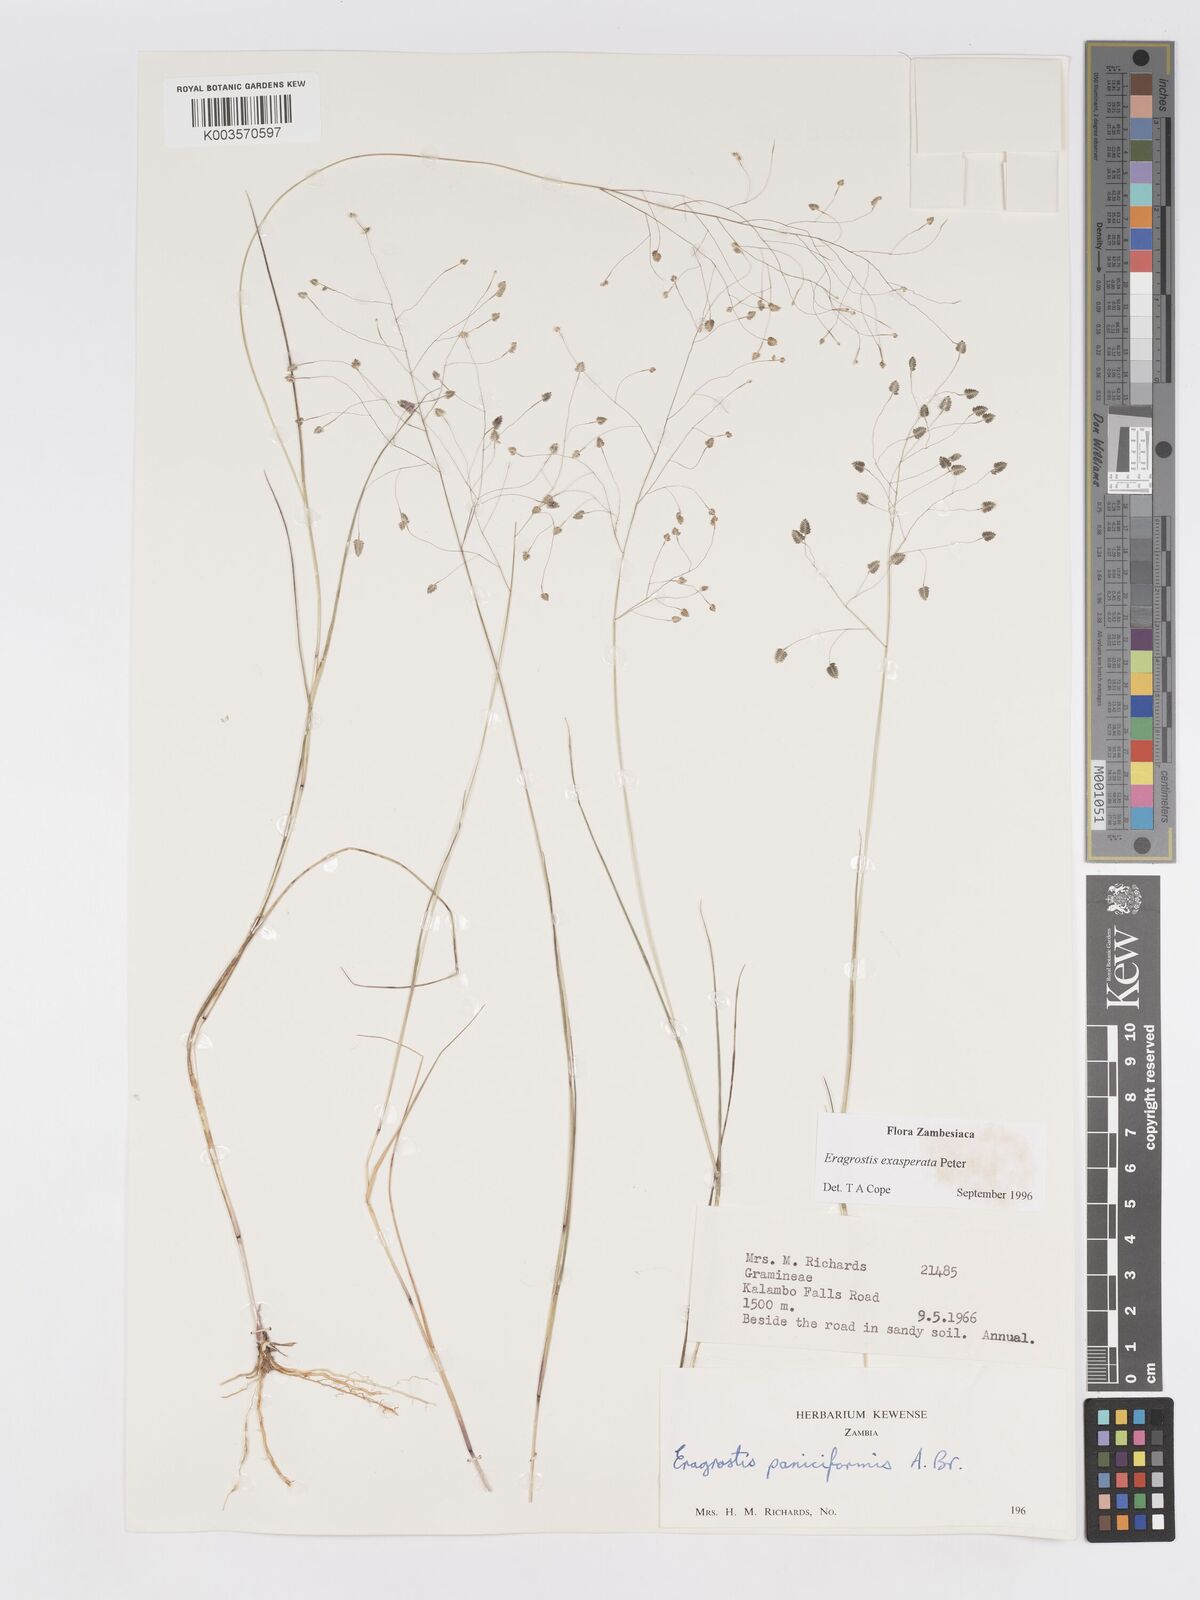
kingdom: Plantae
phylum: Tracheophyta
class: Liliopsida
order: Poales
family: Poaceae
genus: Eragrostis
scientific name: Eragrostis exasperata
